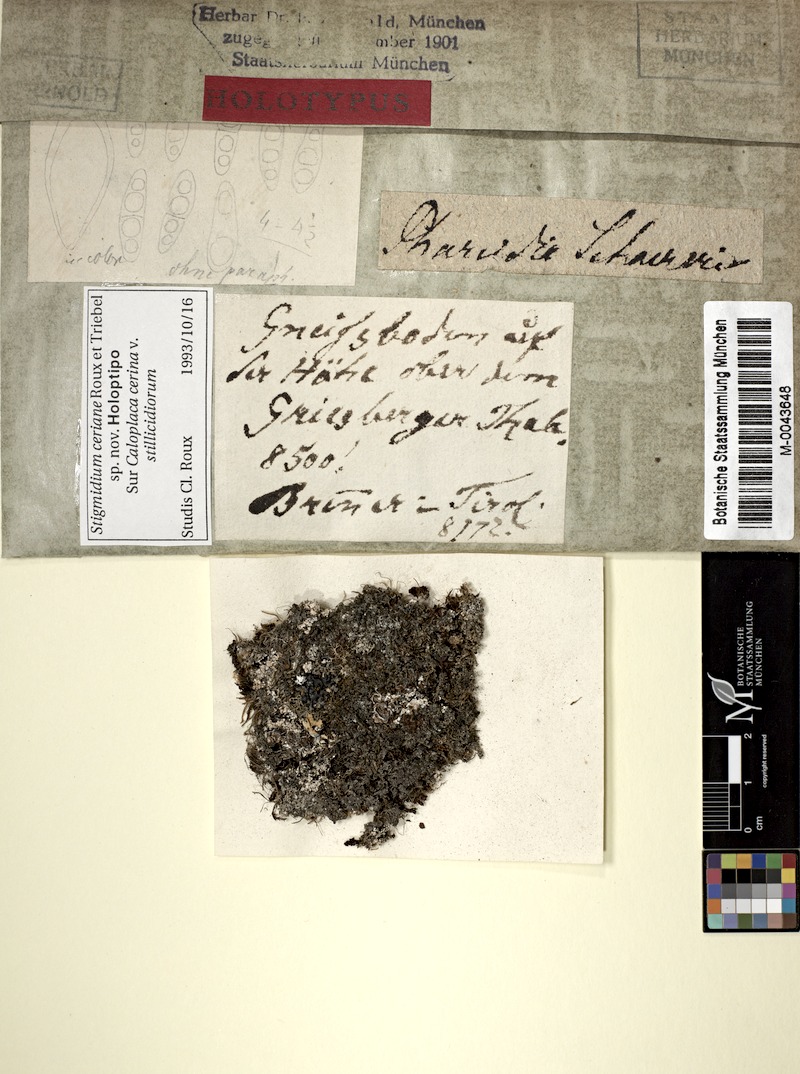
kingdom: Fungi
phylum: Ascomycota
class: Lecanoromycetes
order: Teloschistales
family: Teloschistaceae
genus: Caloplaca
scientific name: Caloplaca cerina
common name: Gray-rimmed firedot lichen
